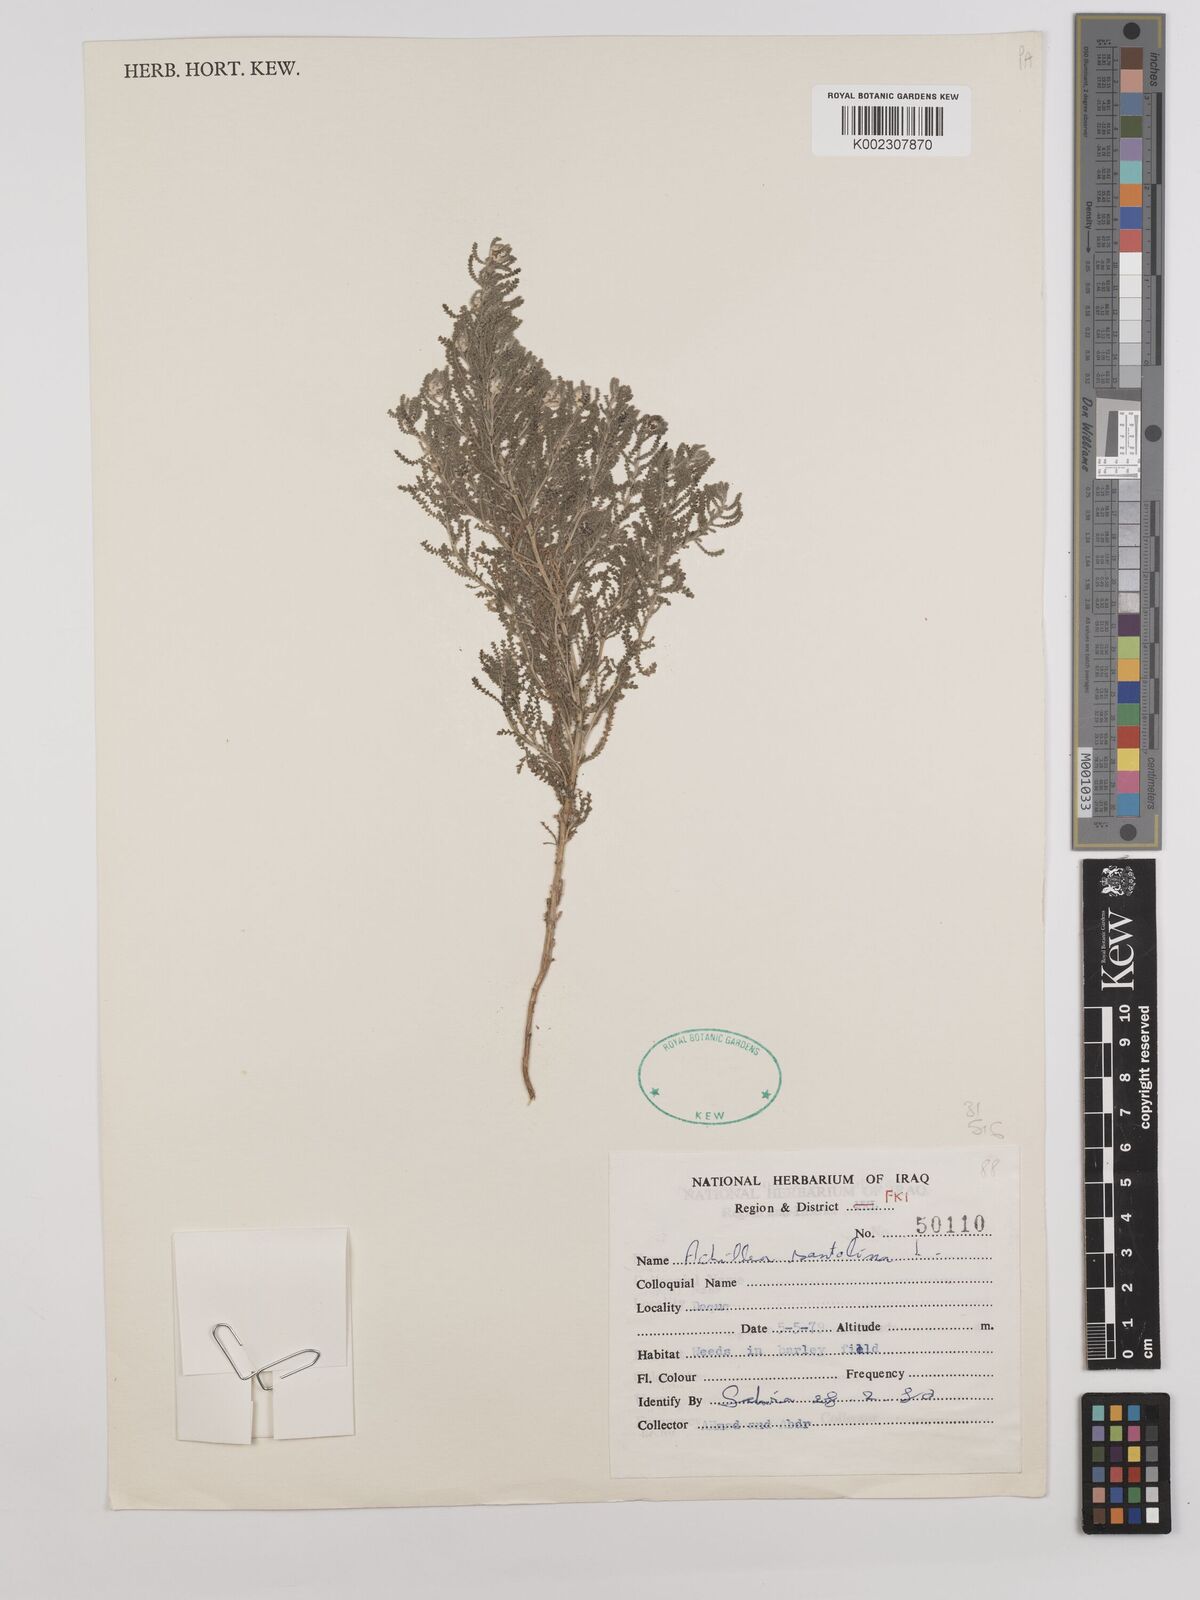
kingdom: Plantae
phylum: Tracheophyta
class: Magnoliopsida
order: Asterales
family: Asteraceae
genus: Achillea
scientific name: Achillea wilhelmsii
